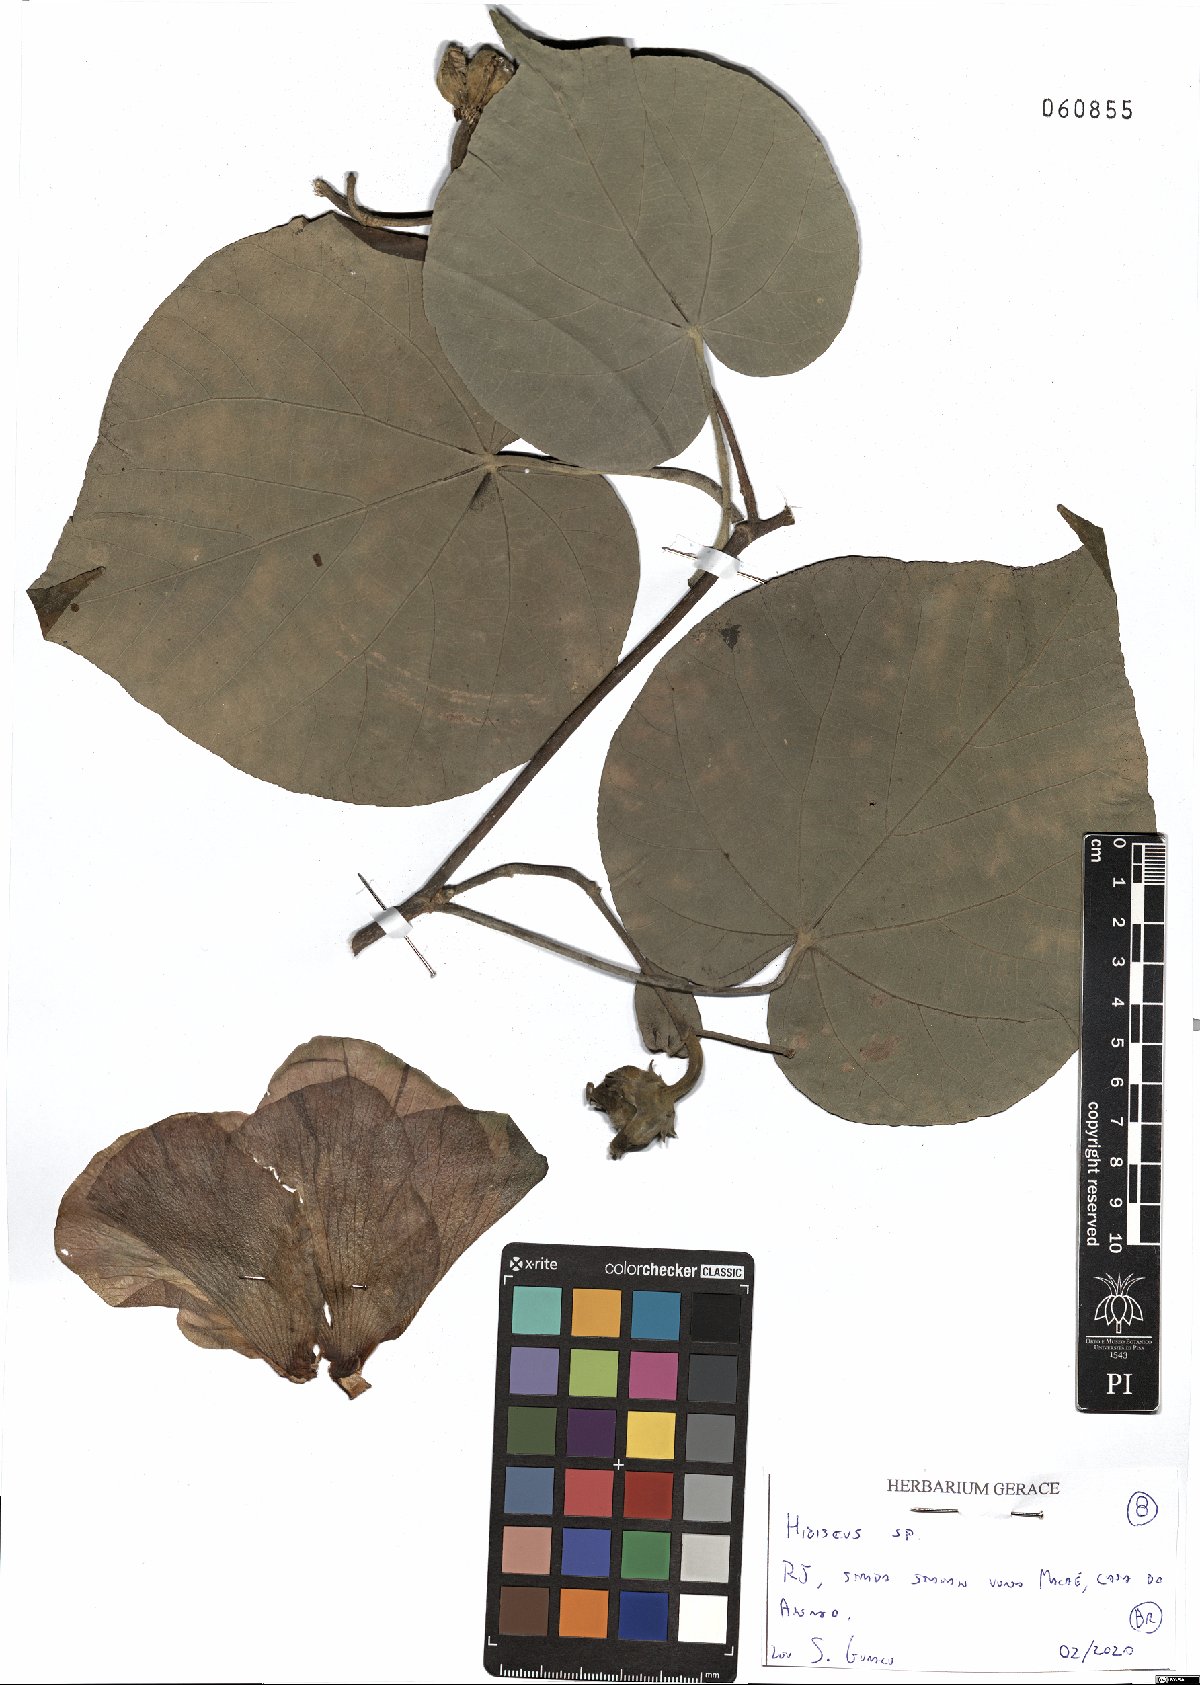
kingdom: Plantae
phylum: Tracheophyta
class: Magnoliopsida
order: Malvales
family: Malvaceae
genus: Hibiscus
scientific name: Hibiscus
